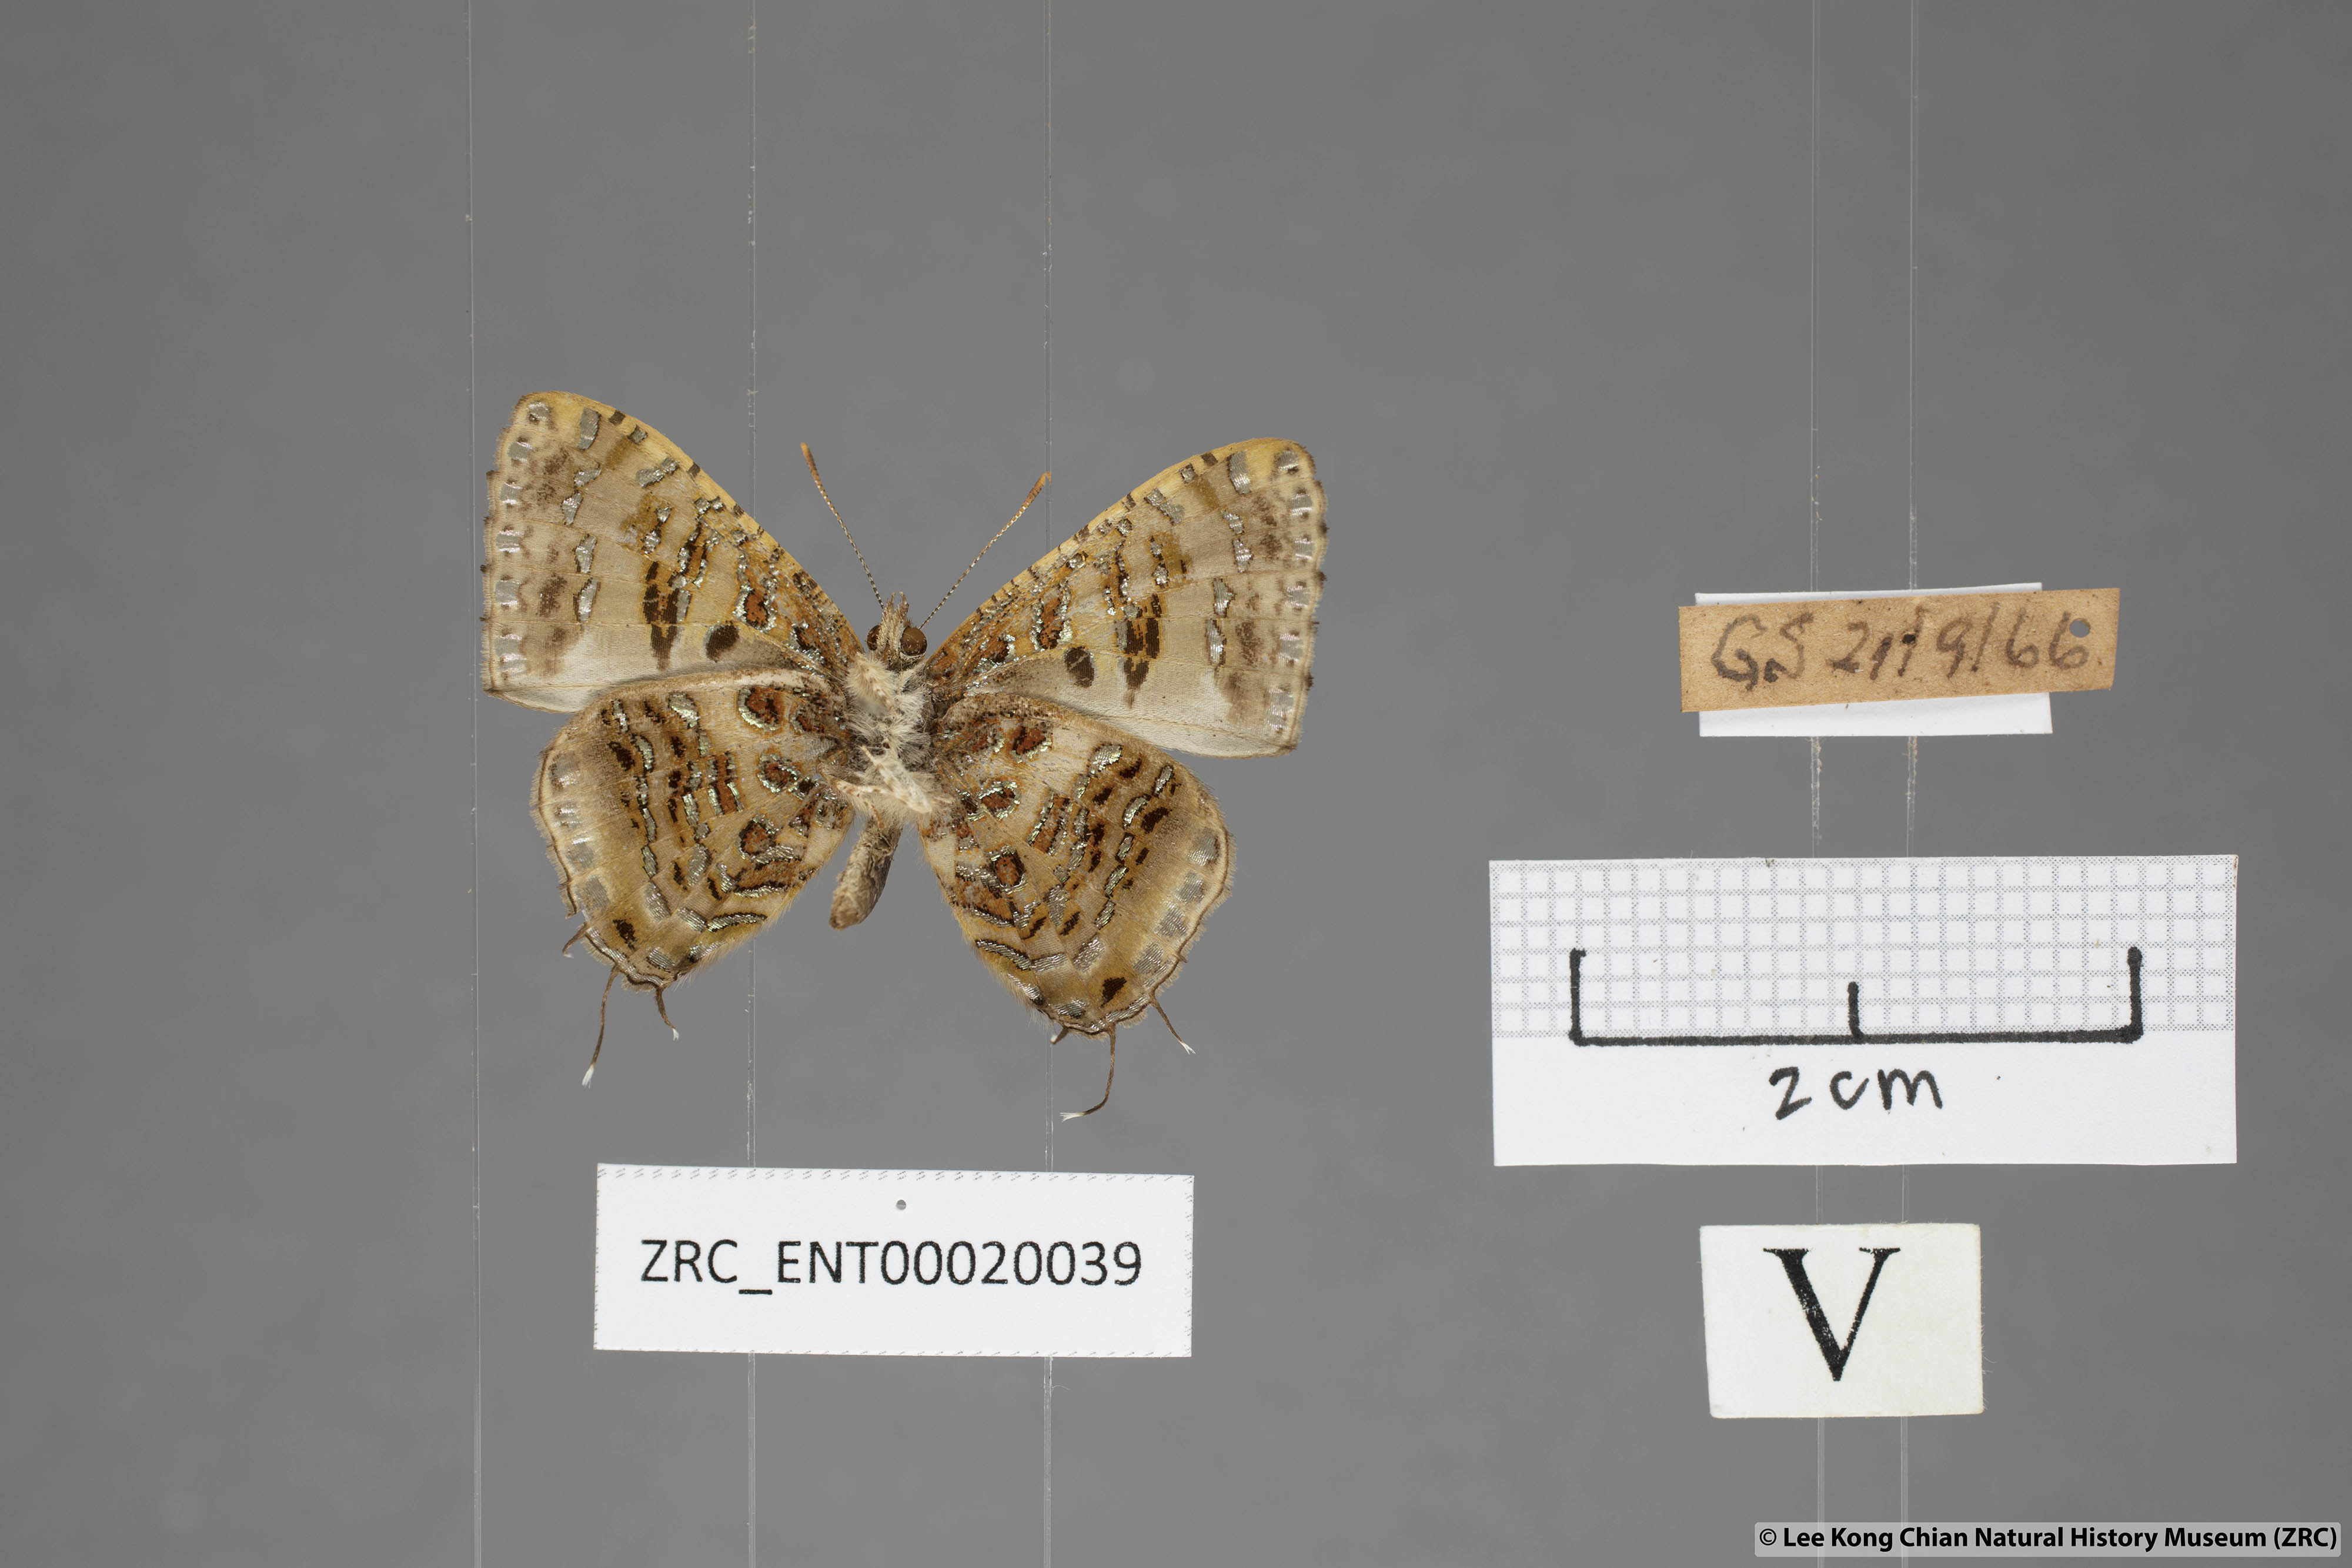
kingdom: Animalia
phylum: Arthropoda
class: Insecta
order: Lepidoptera
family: Lycaenidae
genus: Catapaecilma
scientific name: Catapaecilma major
